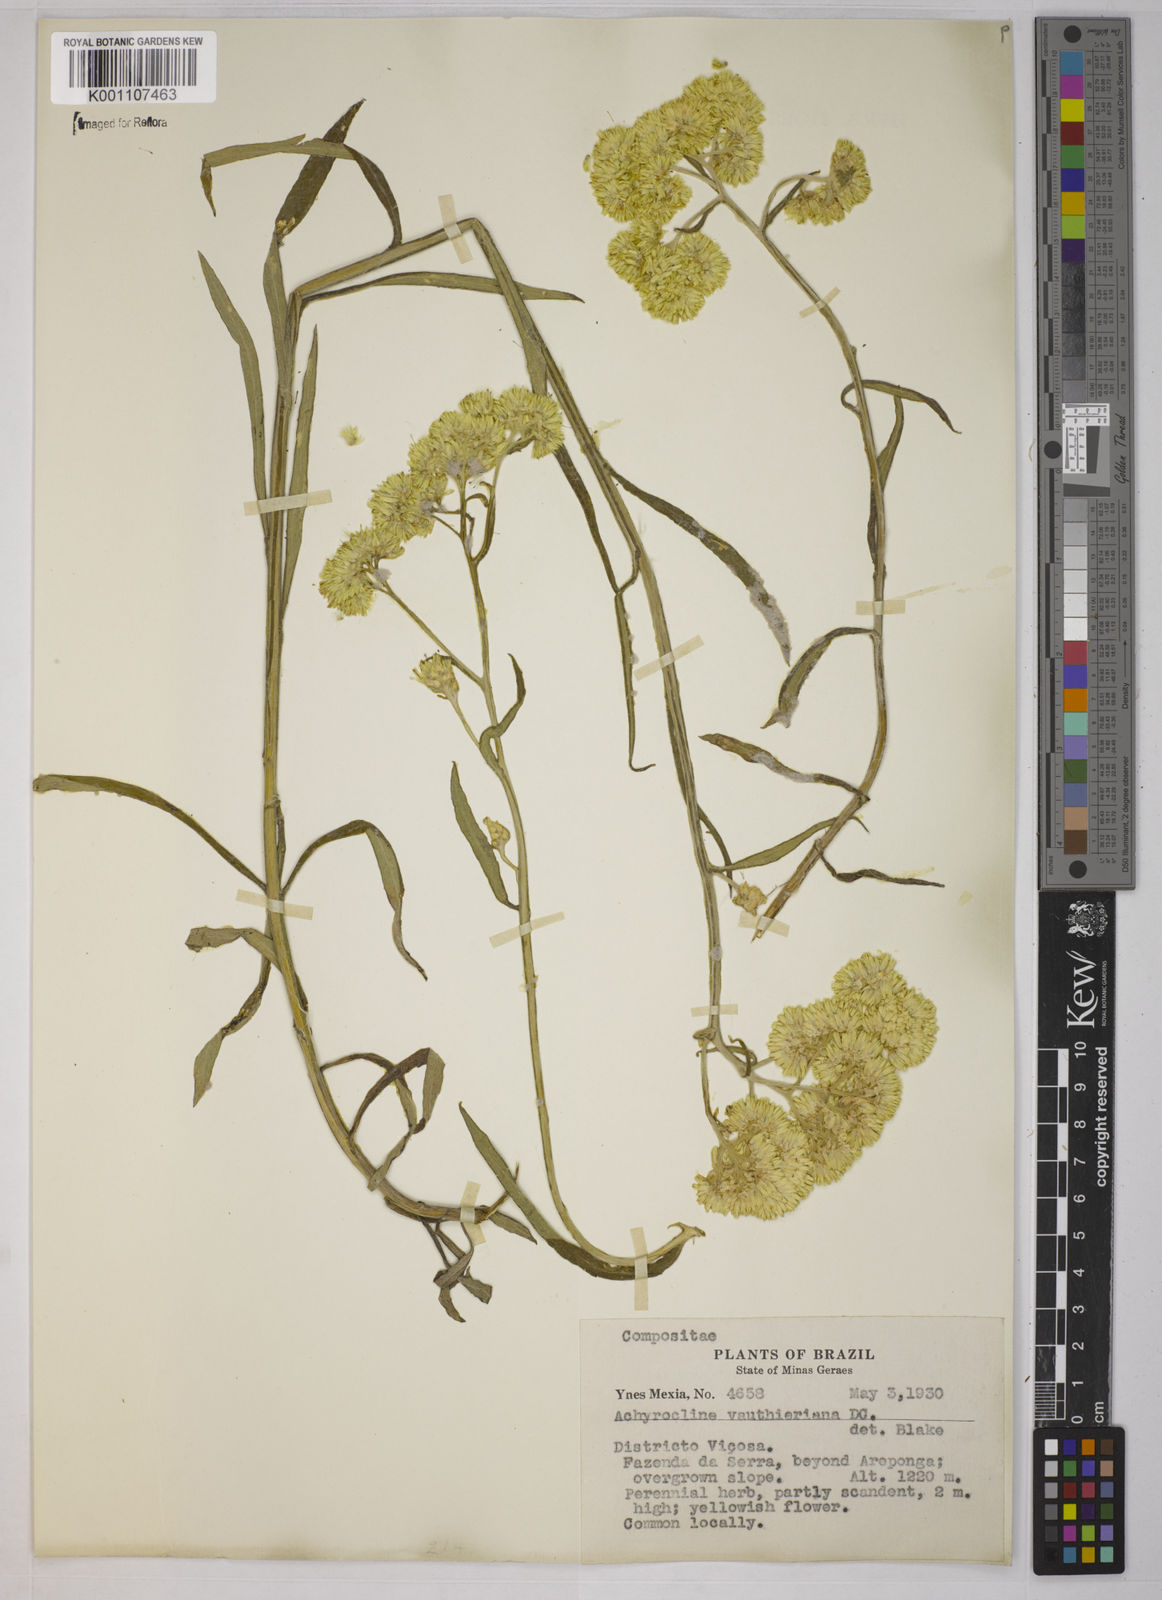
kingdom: Plantae
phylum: Tracheophyta
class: Magnoliopsida
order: Asterales
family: Asteraceae
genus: Achyrocline
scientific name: Achyrocline alata
